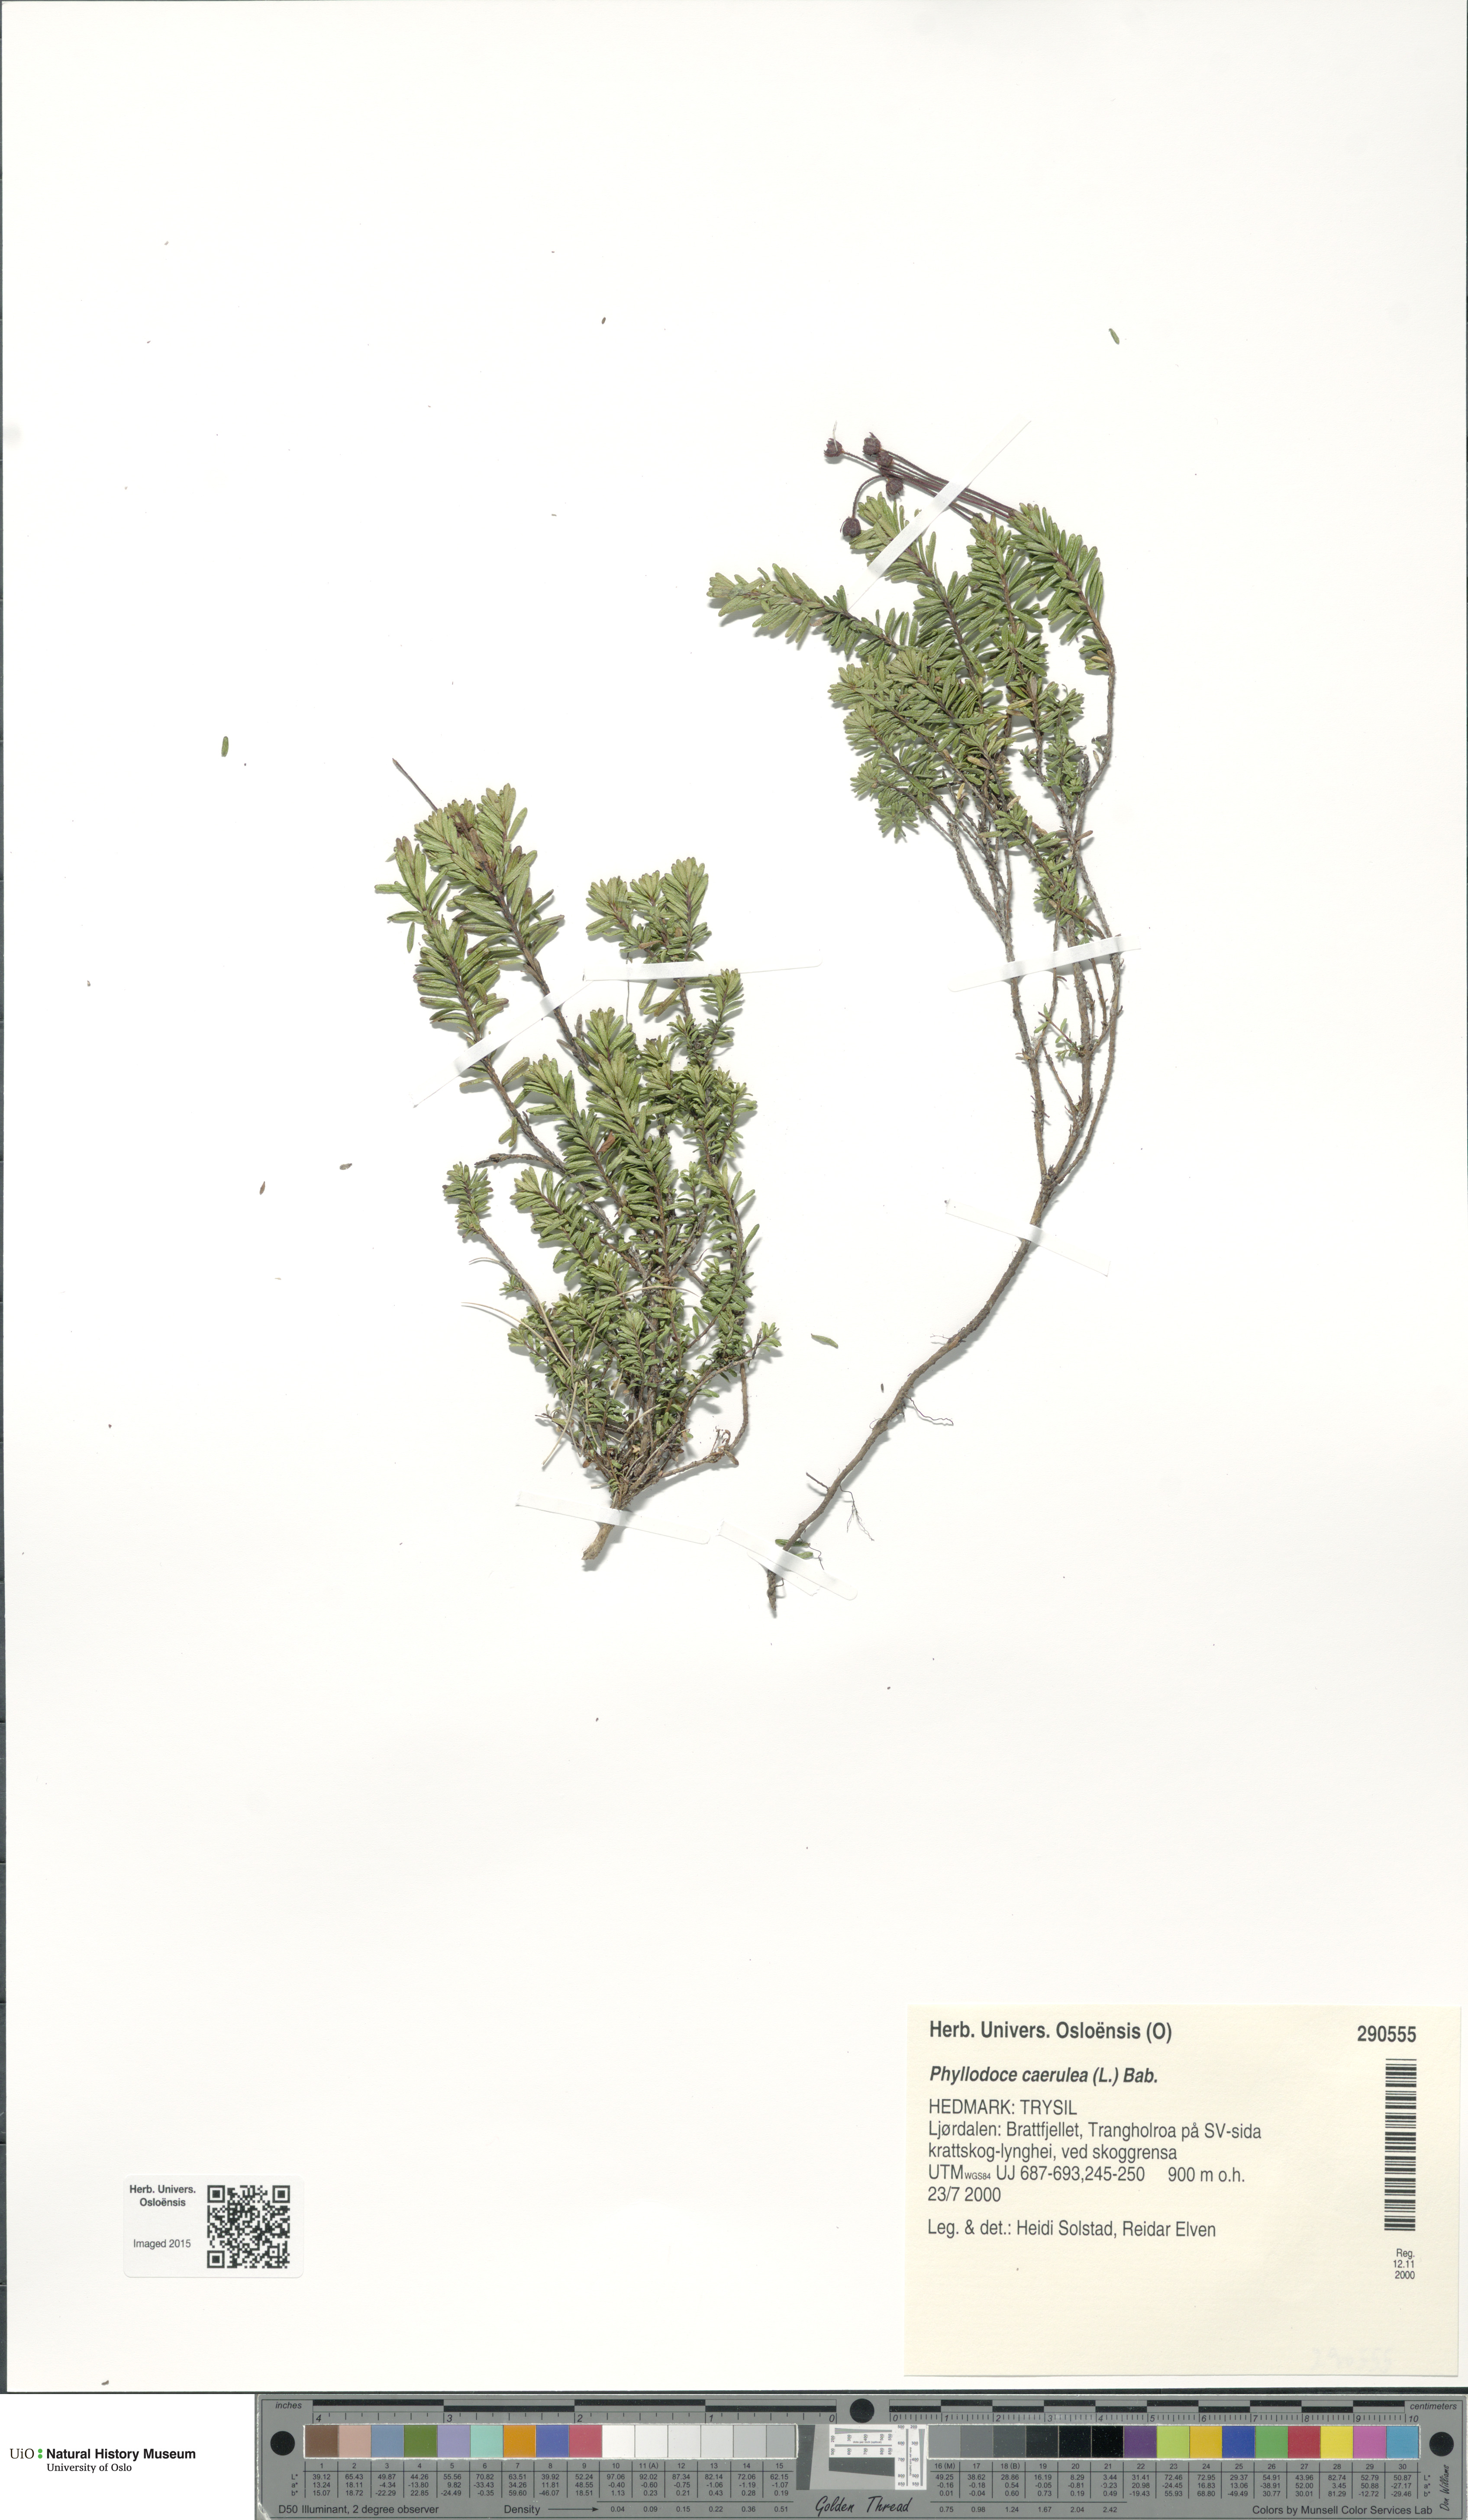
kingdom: Plantae
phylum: Tracheophyta
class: Magnoliopsida
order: Ericales
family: Ericaceae
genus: Phyllodoce
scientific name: Phyllodoce caerulea
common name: Blue heath
